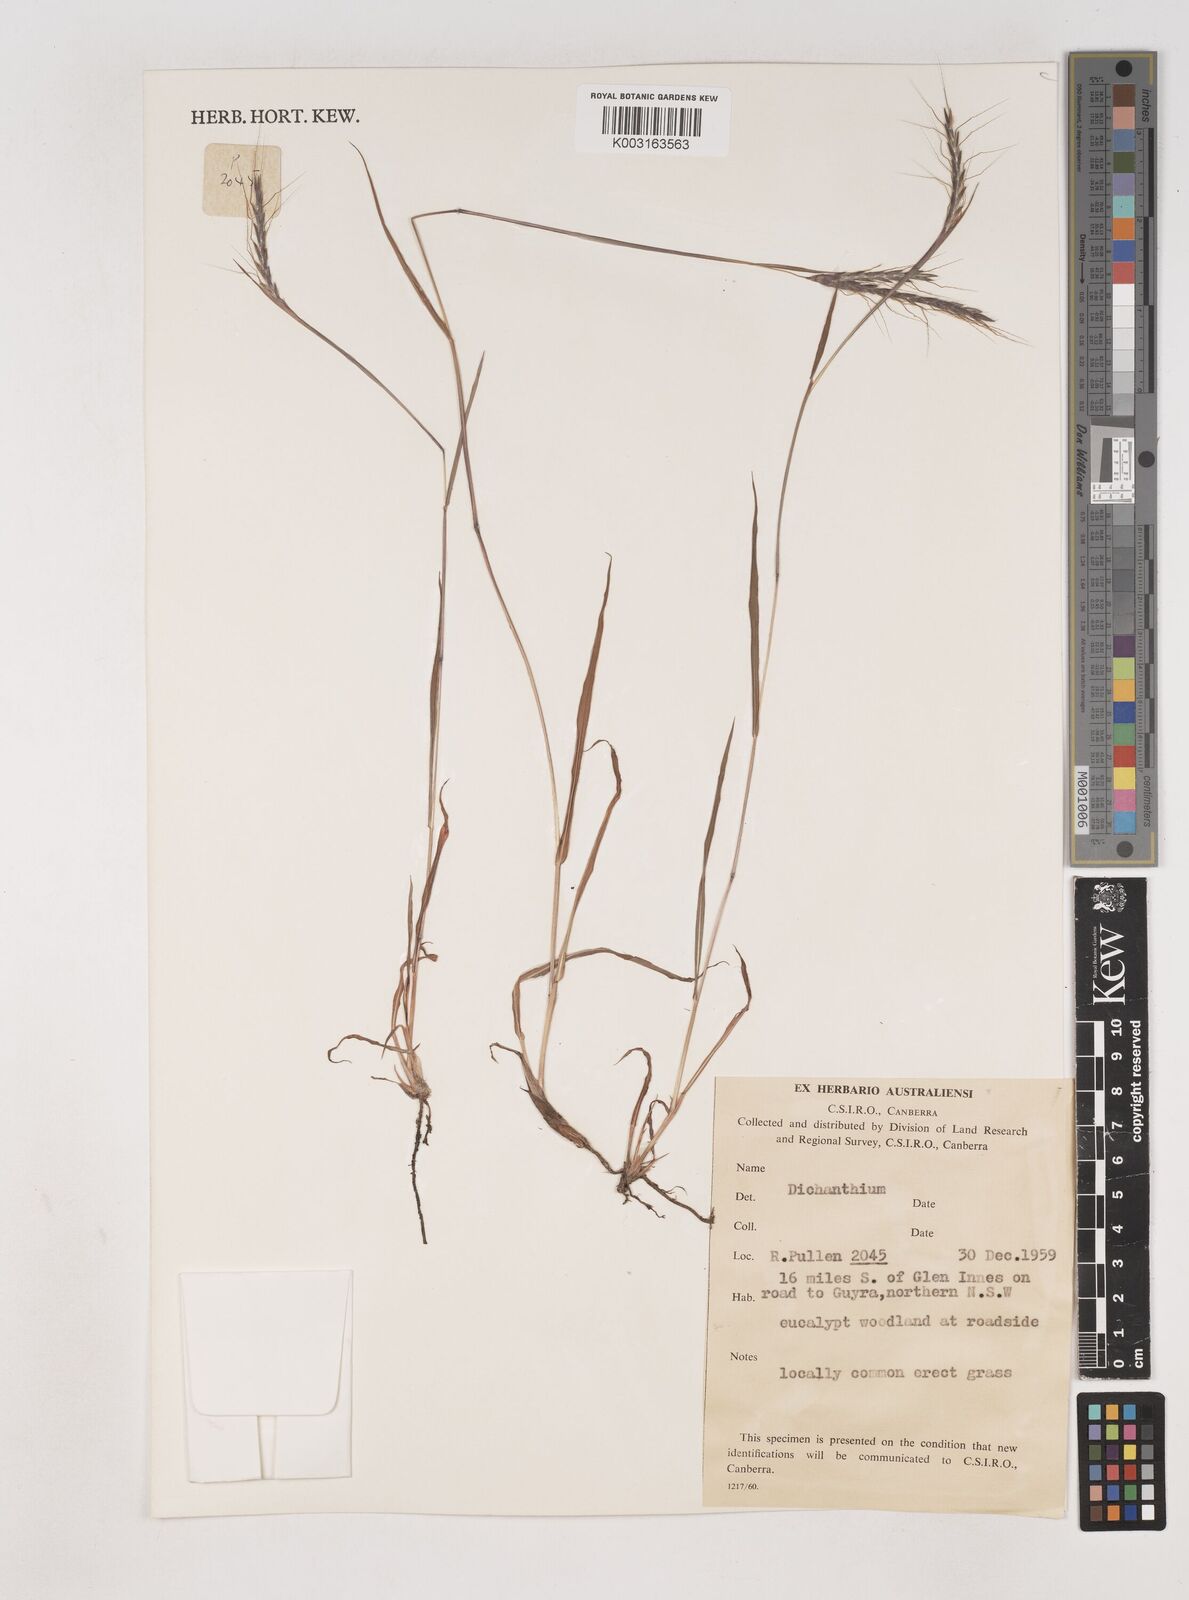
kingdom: Plantae
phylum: Tracheophyta
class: Liliopsida
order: Poales
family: Poaceae
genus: Dichanthium
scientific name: Dichanthium
